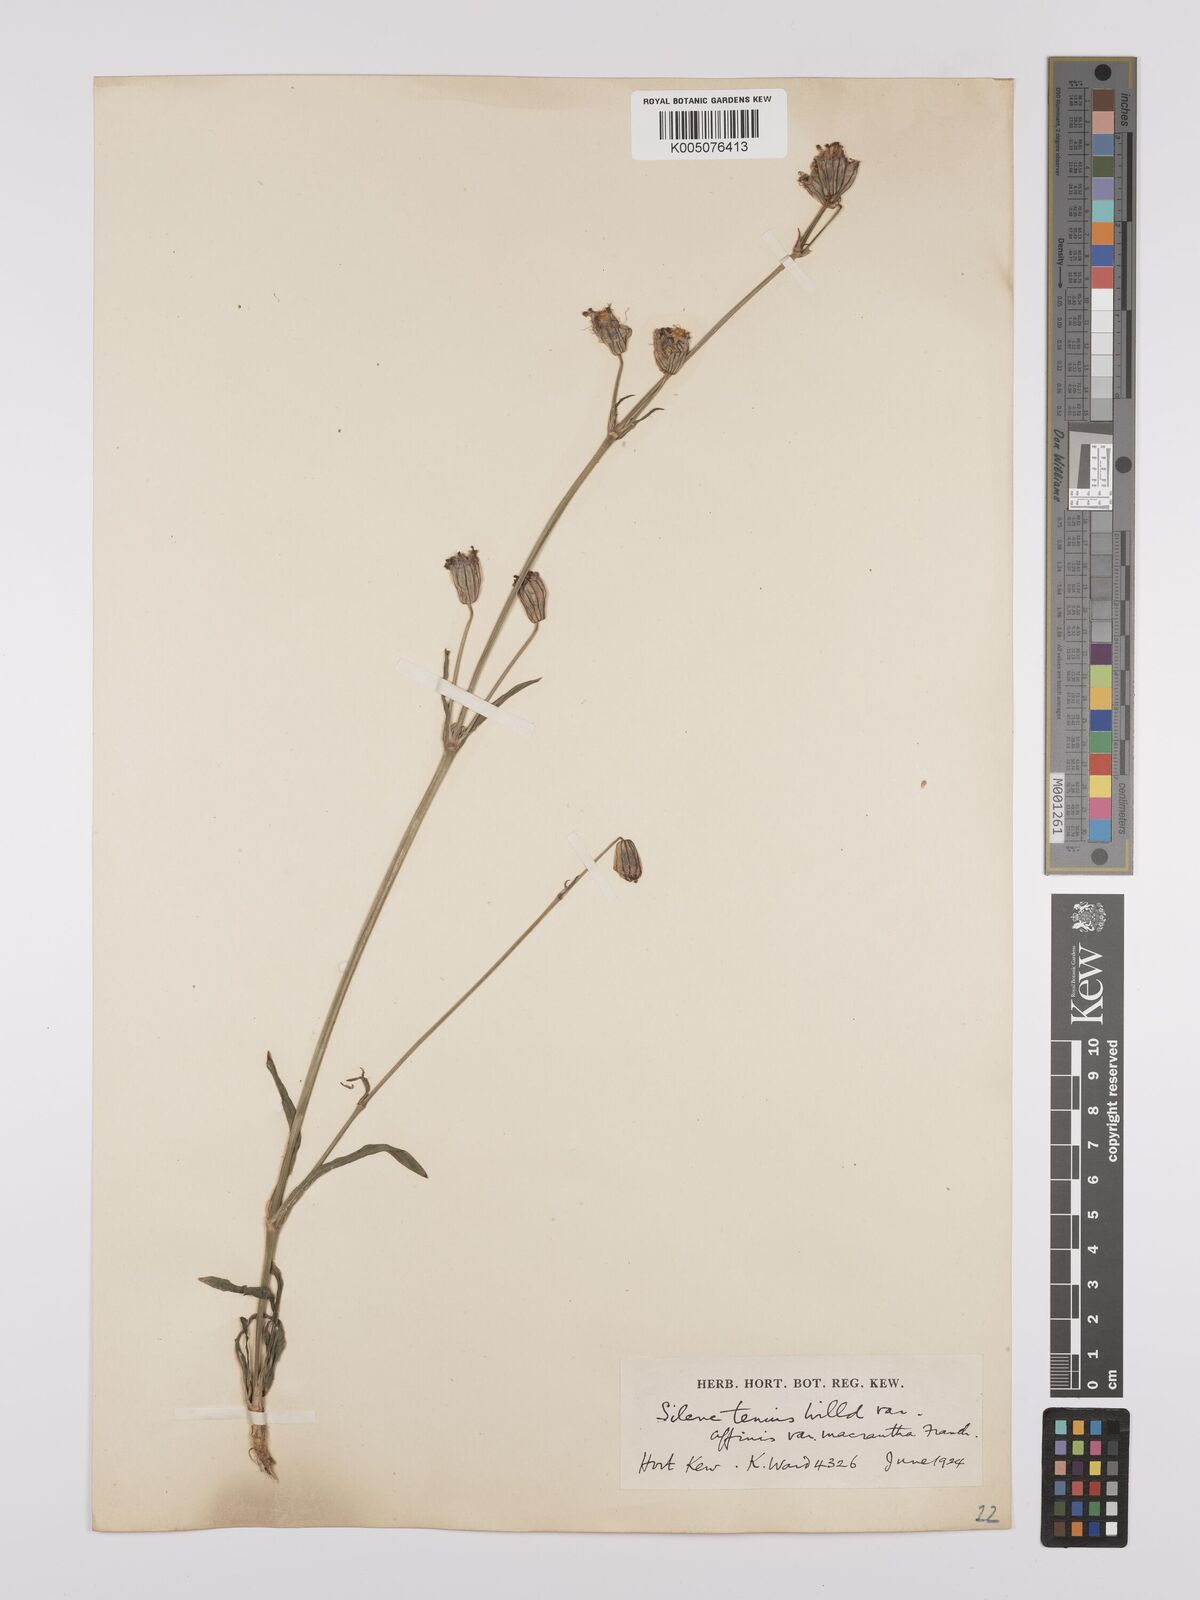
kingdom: Plantae
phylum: Tracheophyta
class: Magnoliopsida
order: Caryophyllales
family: Caryophyllaceae
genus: Silene
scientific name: Silene
